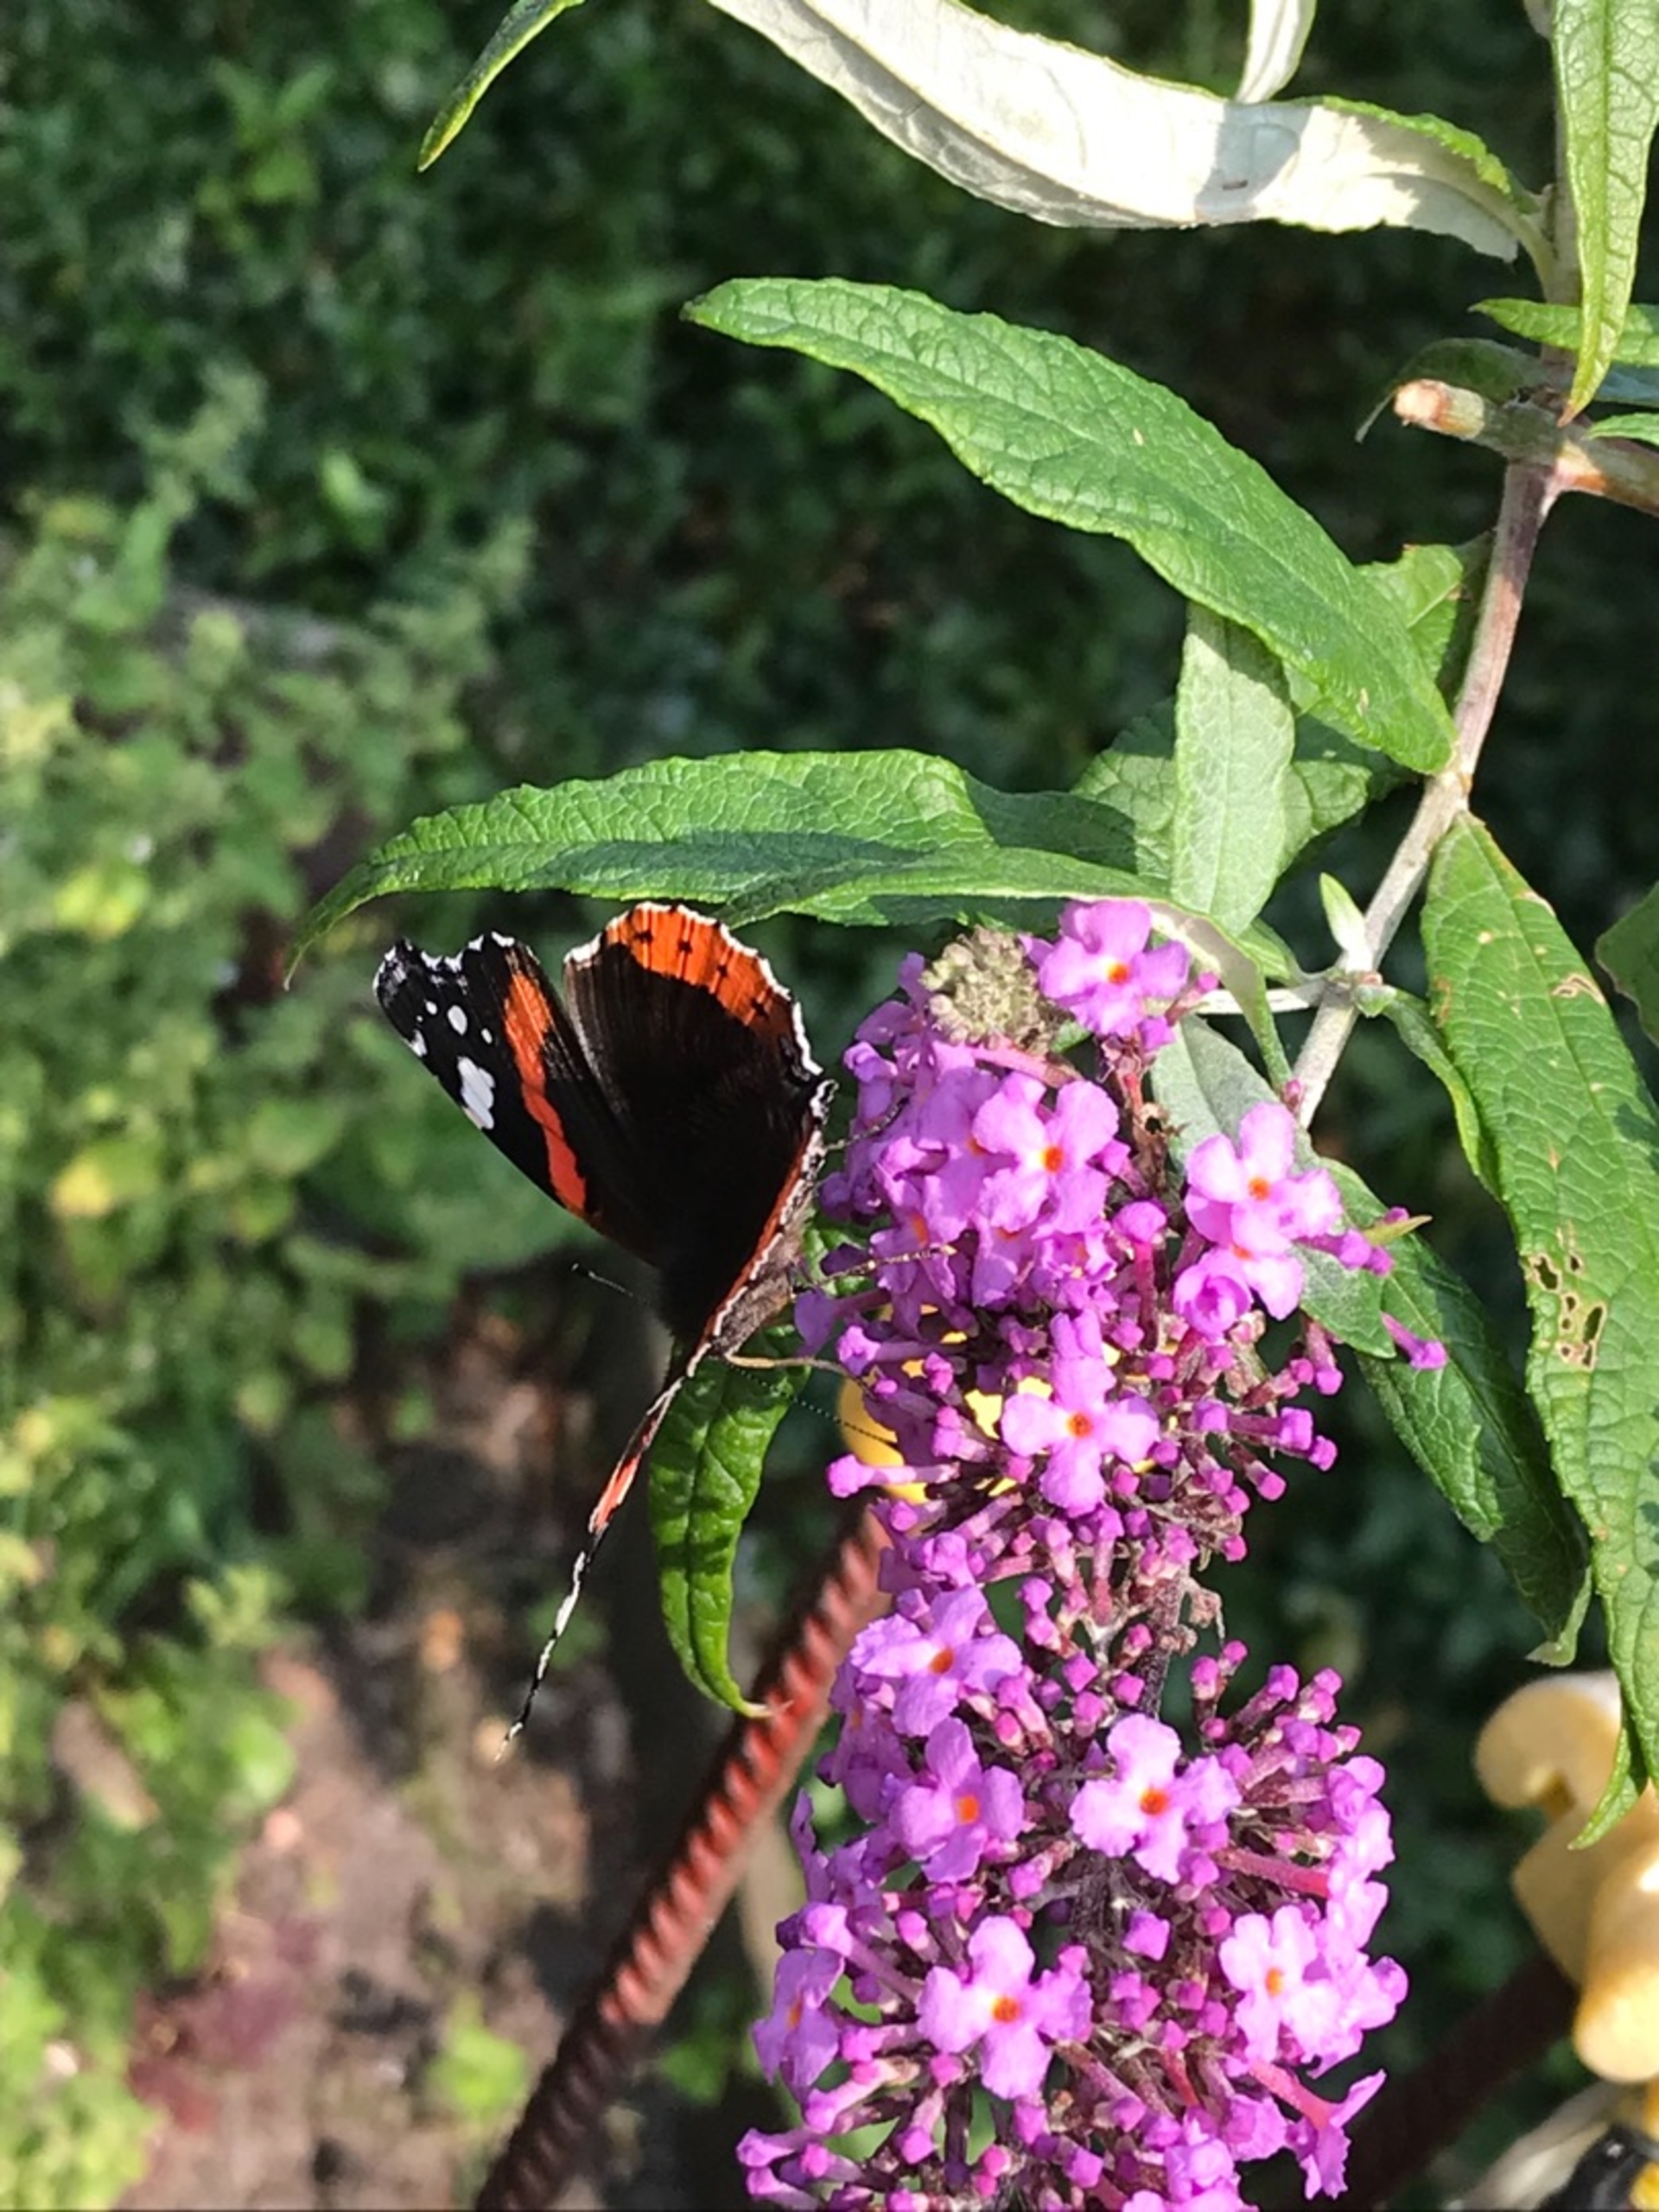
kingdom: Animalia
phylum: Arthropoda
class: Insecta
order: Lepidoptera
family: Nymphalidae
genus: Vanessa
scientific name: Vanessa atalanta
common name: Admiral
